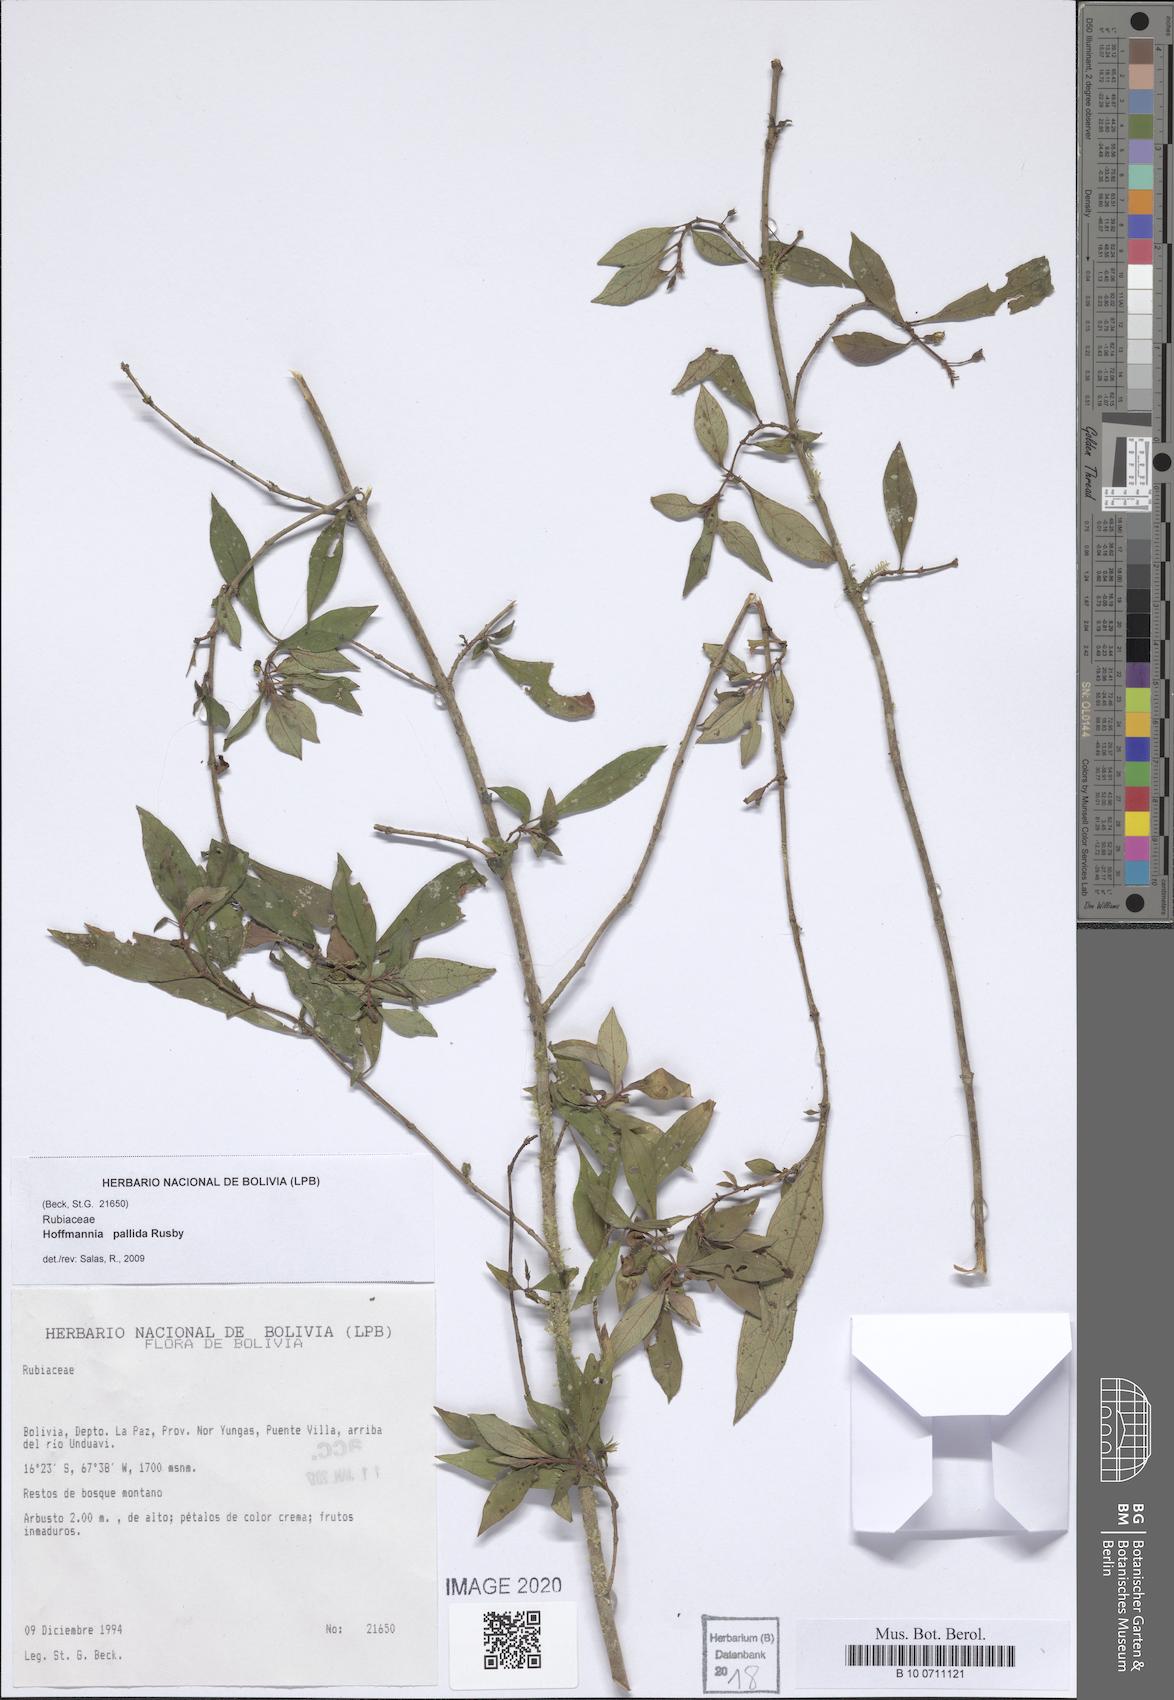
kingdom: Plantae
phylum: Tracheophyta
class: Magnoliopsida
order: Gentianales
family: Rubiaceae
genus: Hoffmannia
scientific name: Hoffmannia pallida
